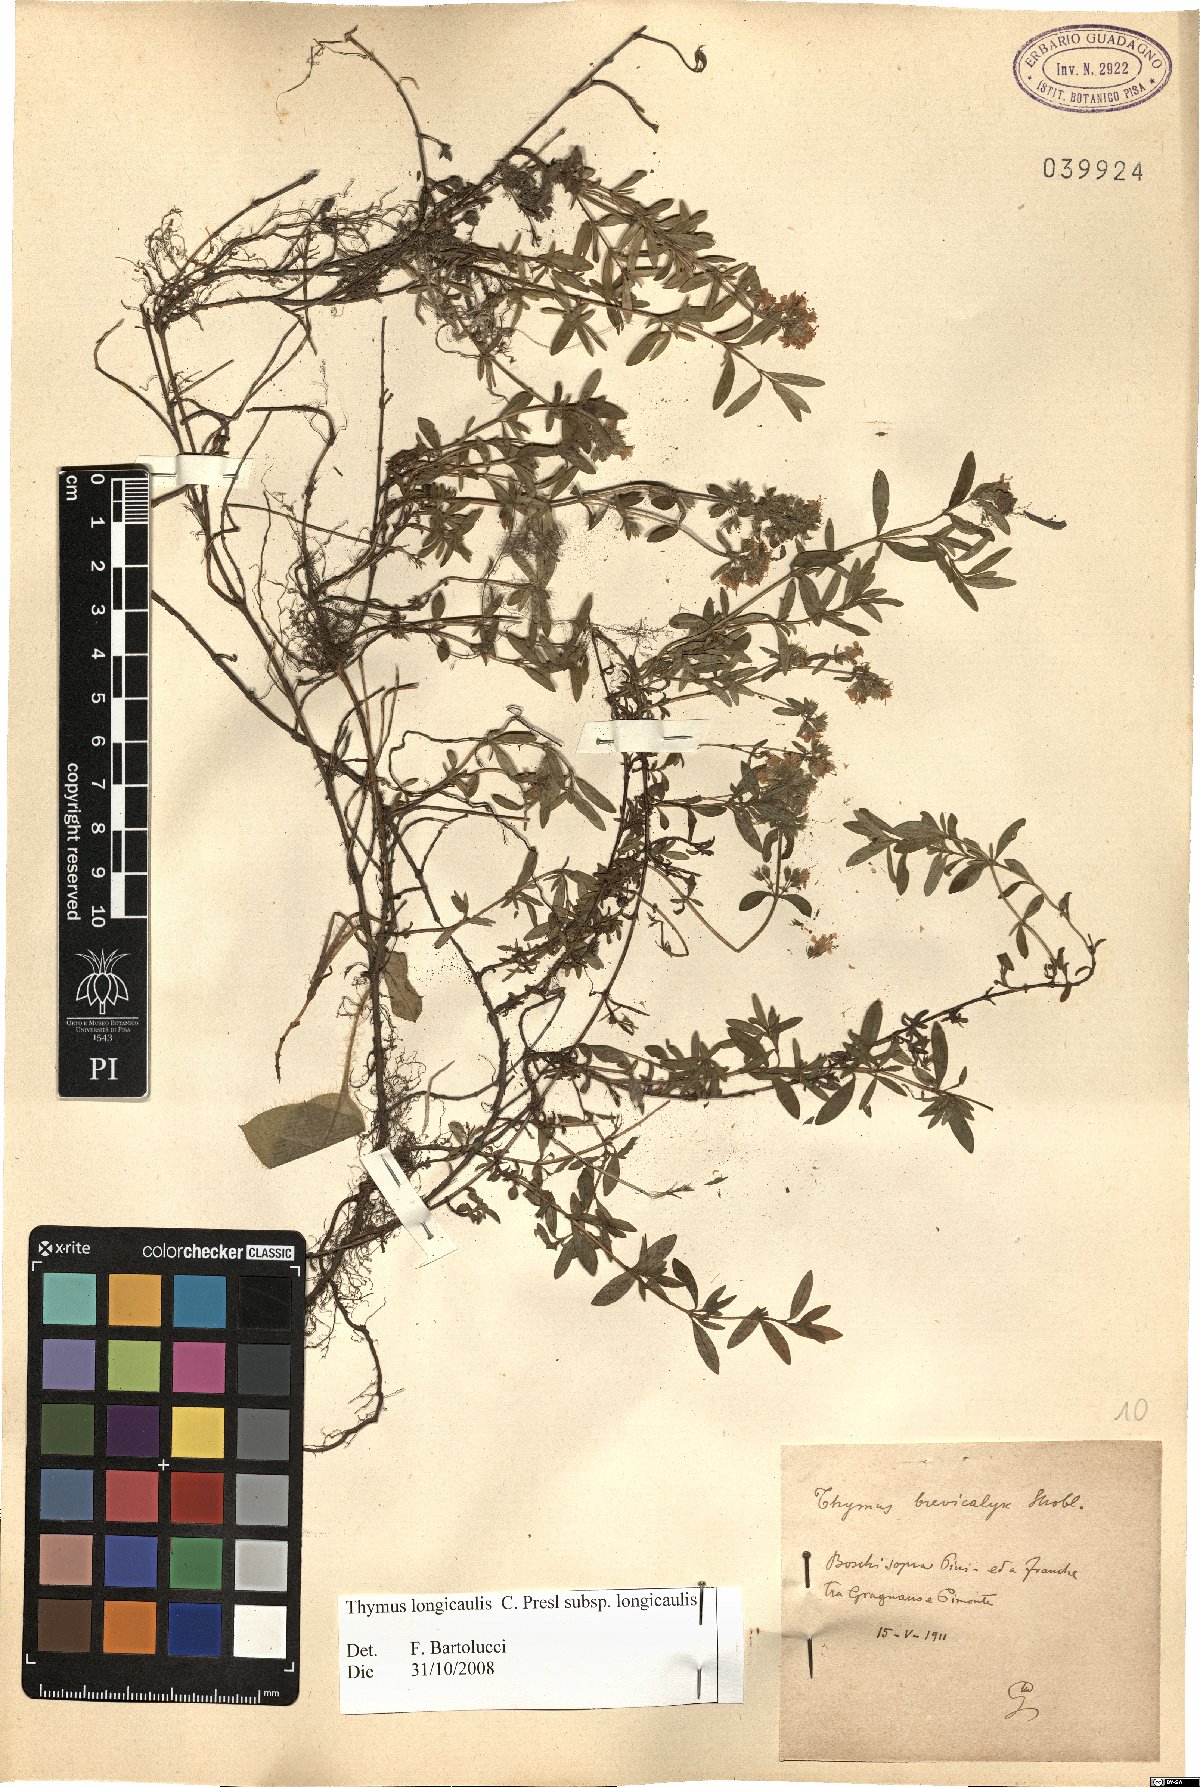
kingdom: Plantae
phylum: Tracheophyta
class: Magnoliopsida
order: Lamiales
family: Lamiaceae
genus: Thymus
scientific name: Thymus longicaulis
